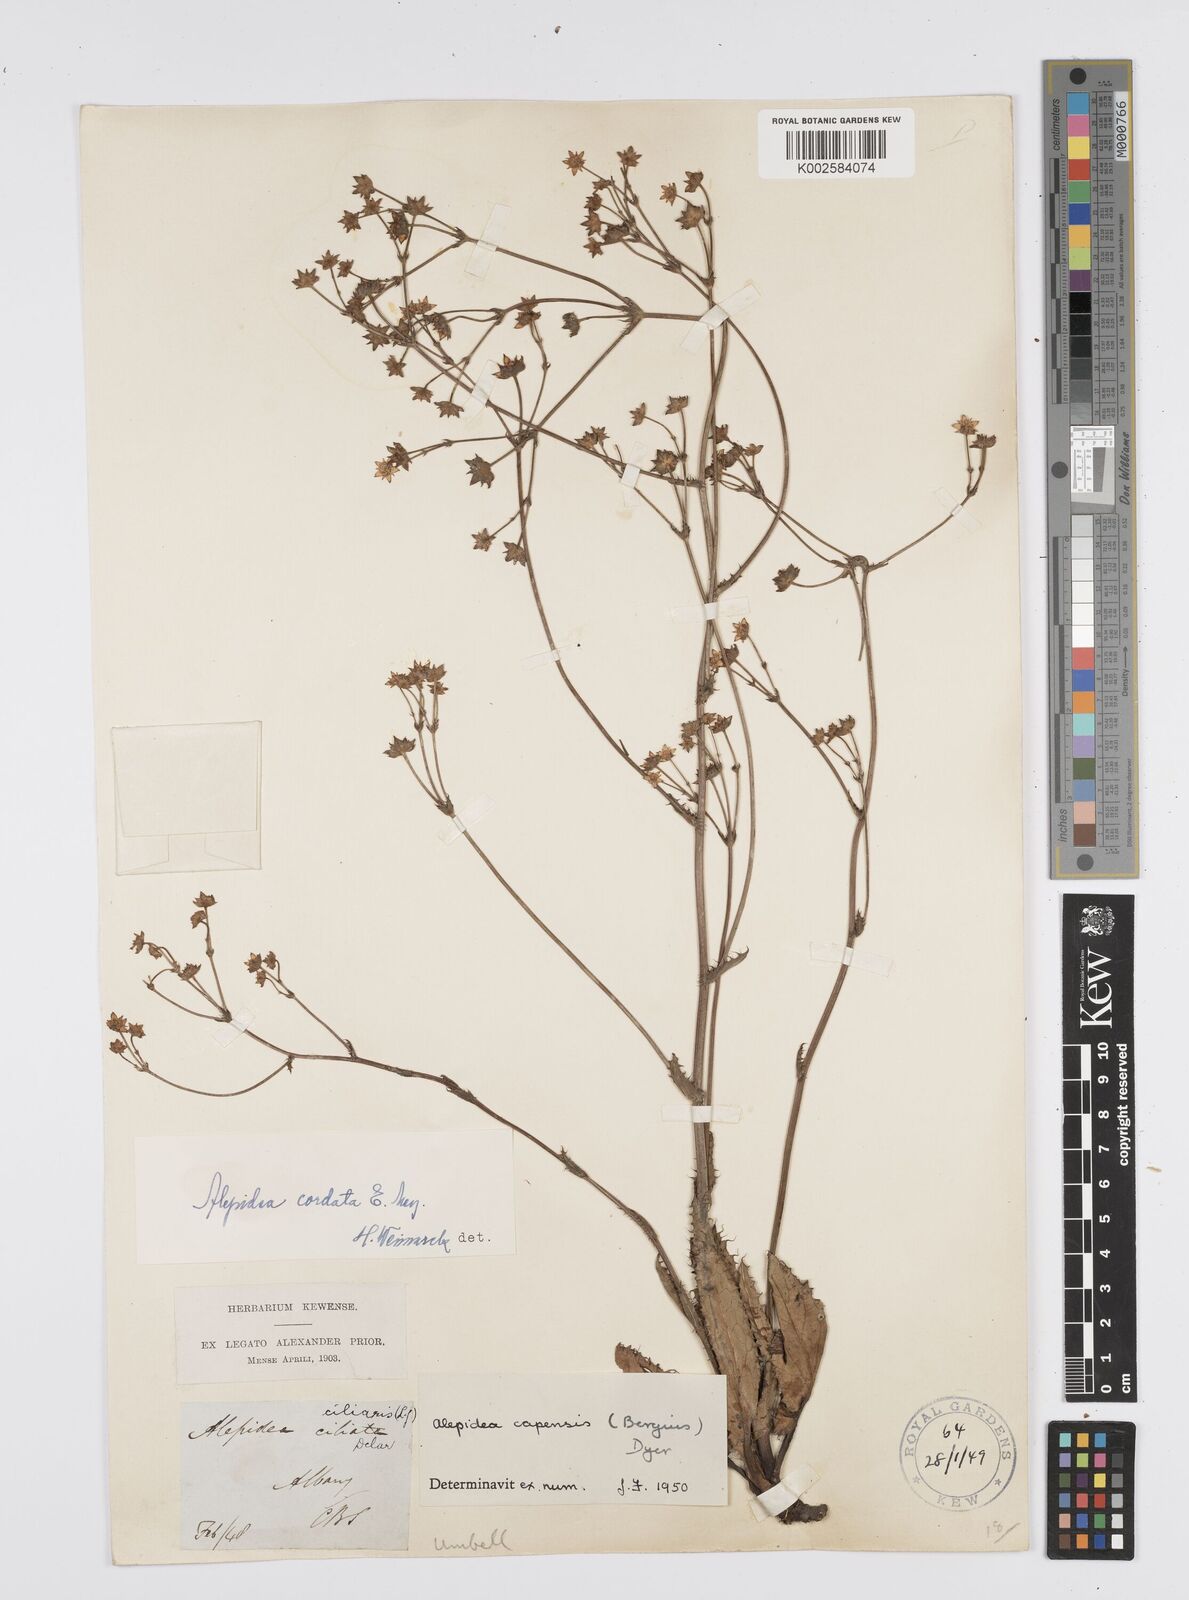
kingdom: Plantae
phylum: Tracheophyta
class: Magnoliopsida
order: Apiales
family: Apiaceae
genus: Alepidea
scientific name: Alepidea capensis
